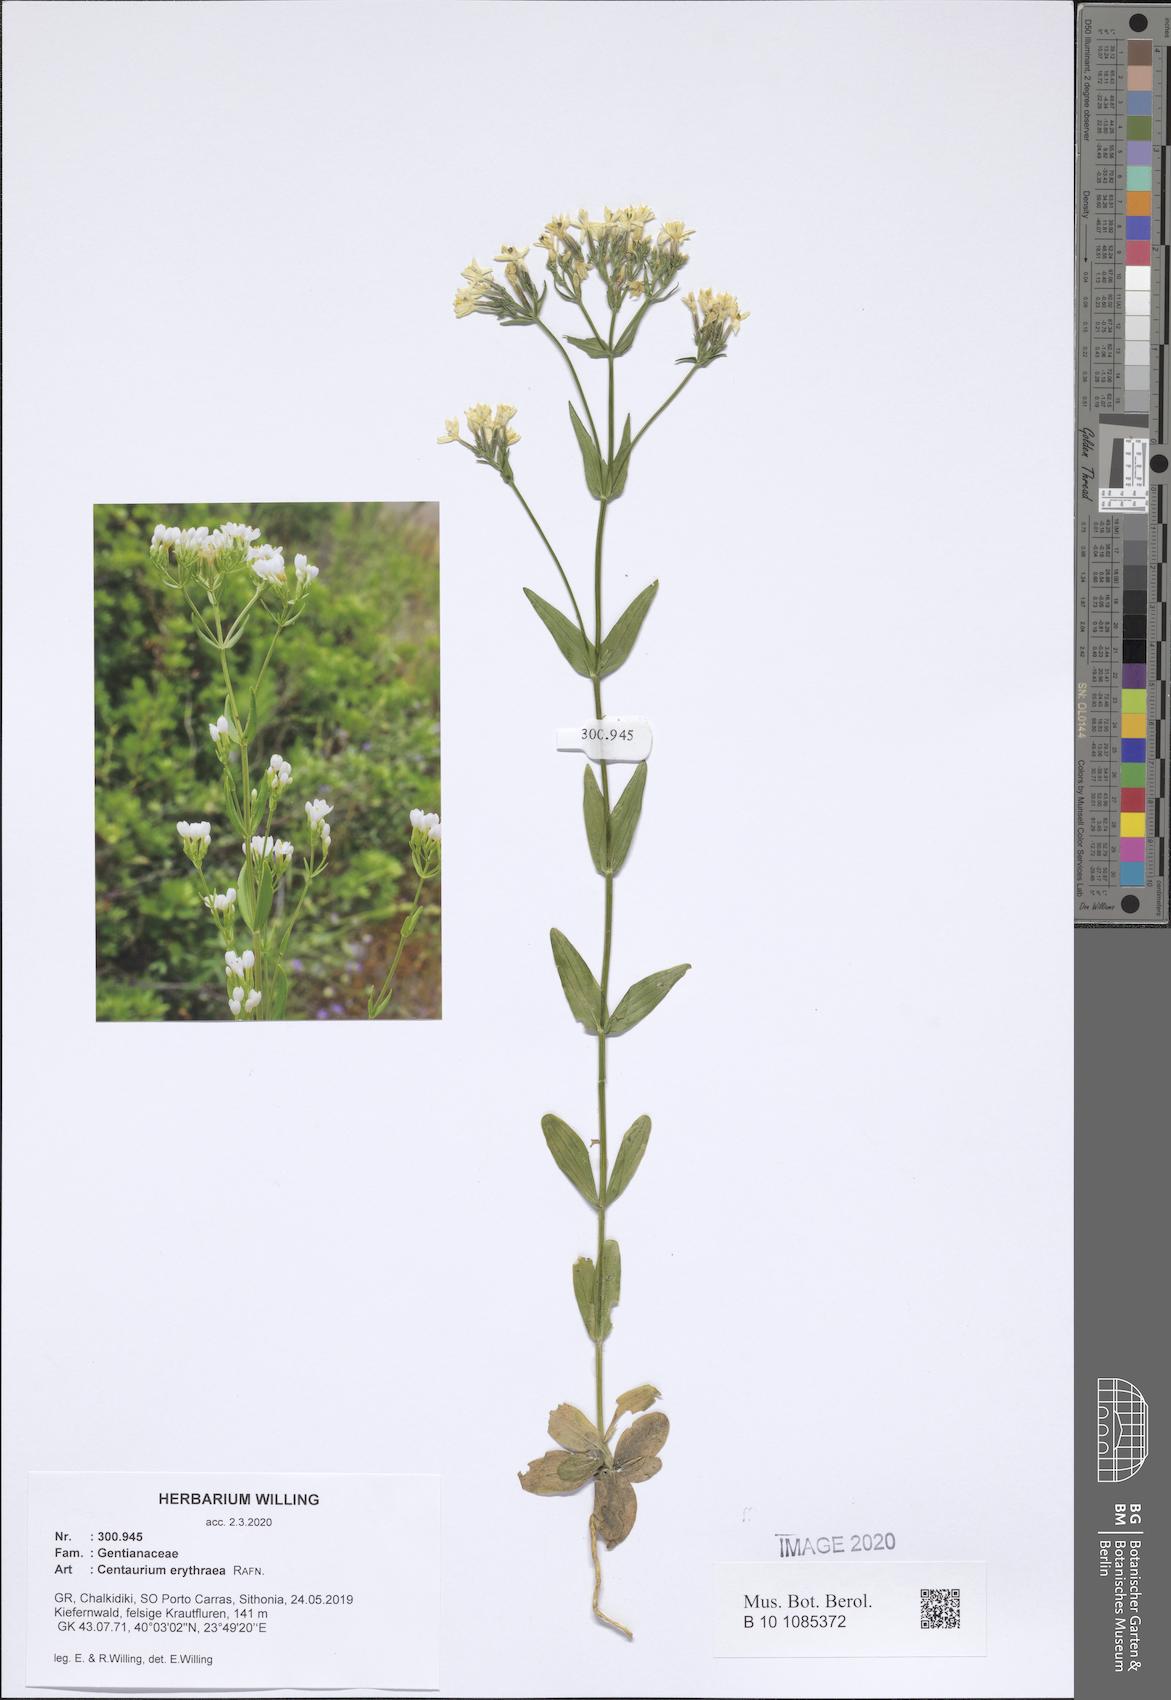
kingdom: Plantae
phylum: Tracheophyta
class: Magnoliopsida
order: Gentianales
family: Gentianaceae
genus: Centaurium
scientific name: Centaurium erythraea
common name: Common centaury
